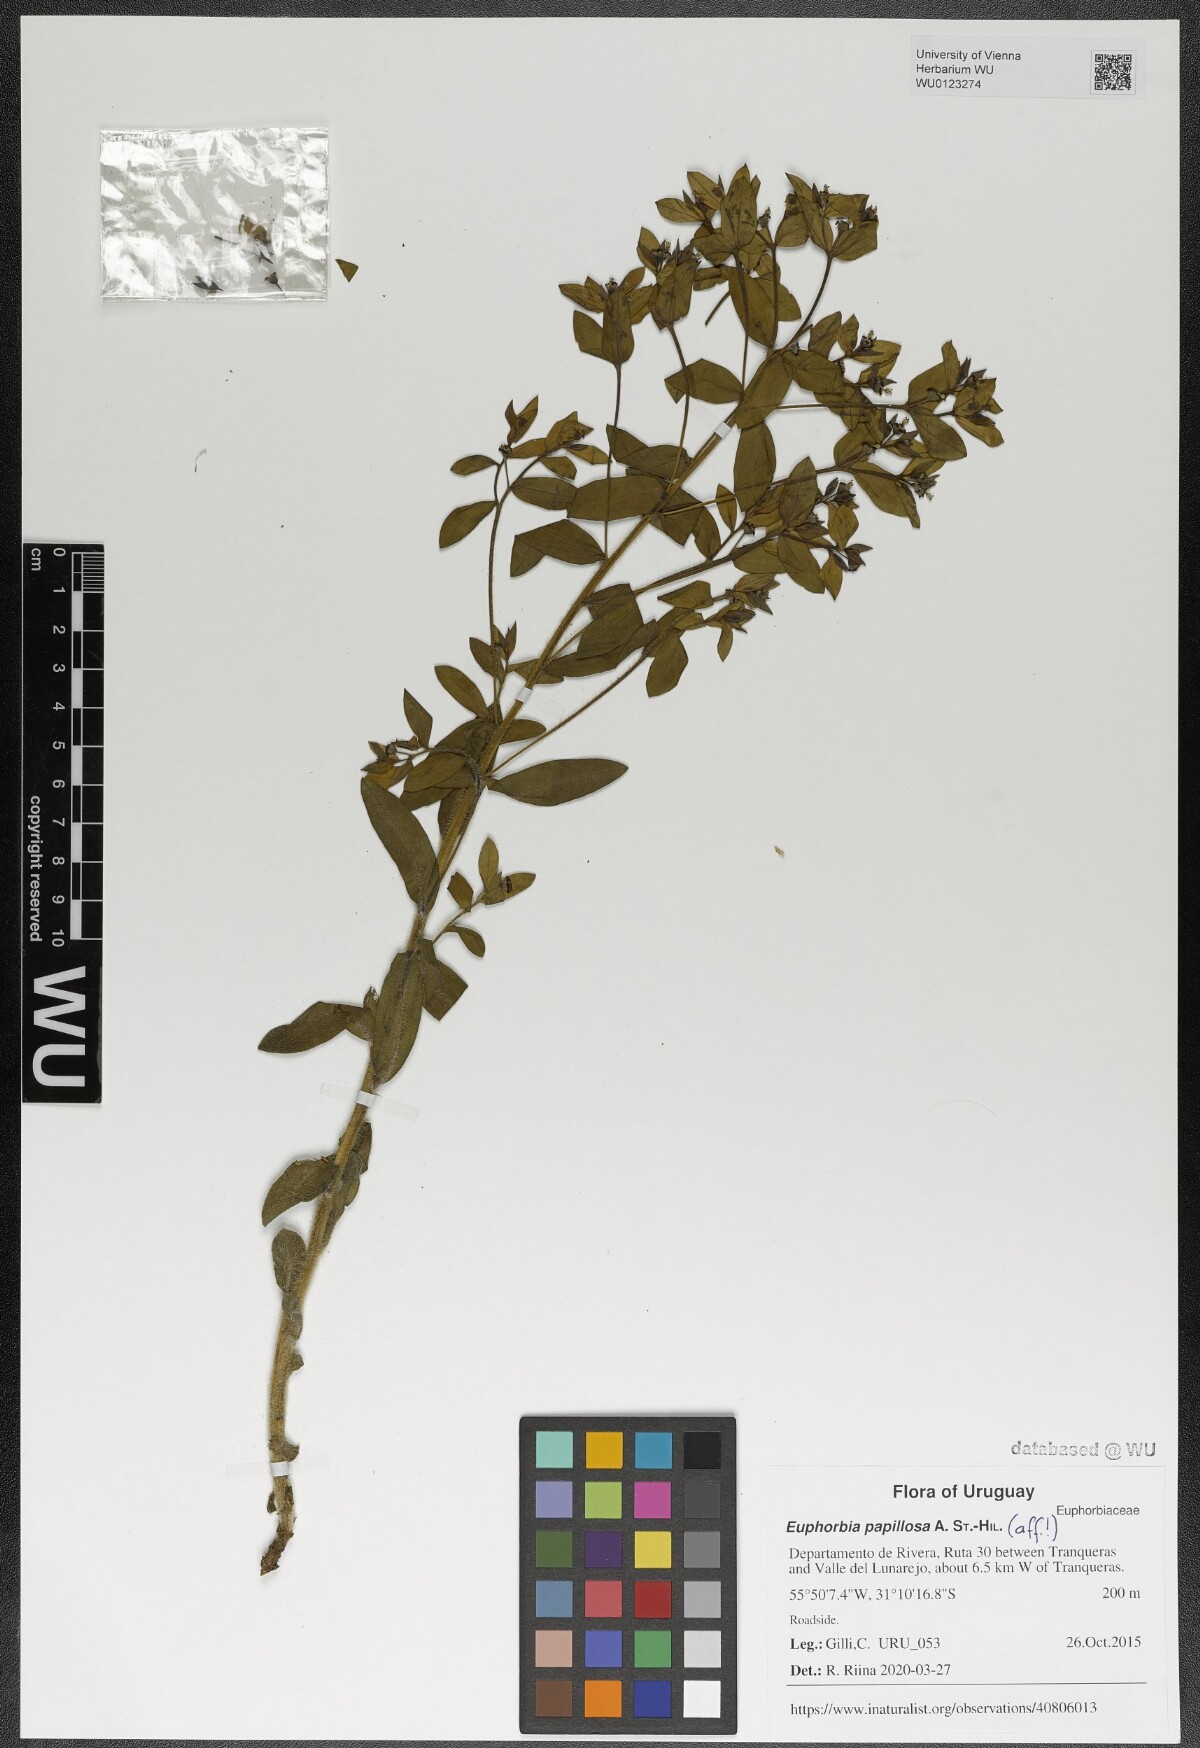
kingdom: Plantae
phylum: Tracheophyta
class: Magnoliopsida
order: Malpighiales
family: Euphorbiaceae
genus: Euphorbia
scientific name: Euphorbia papillosa
